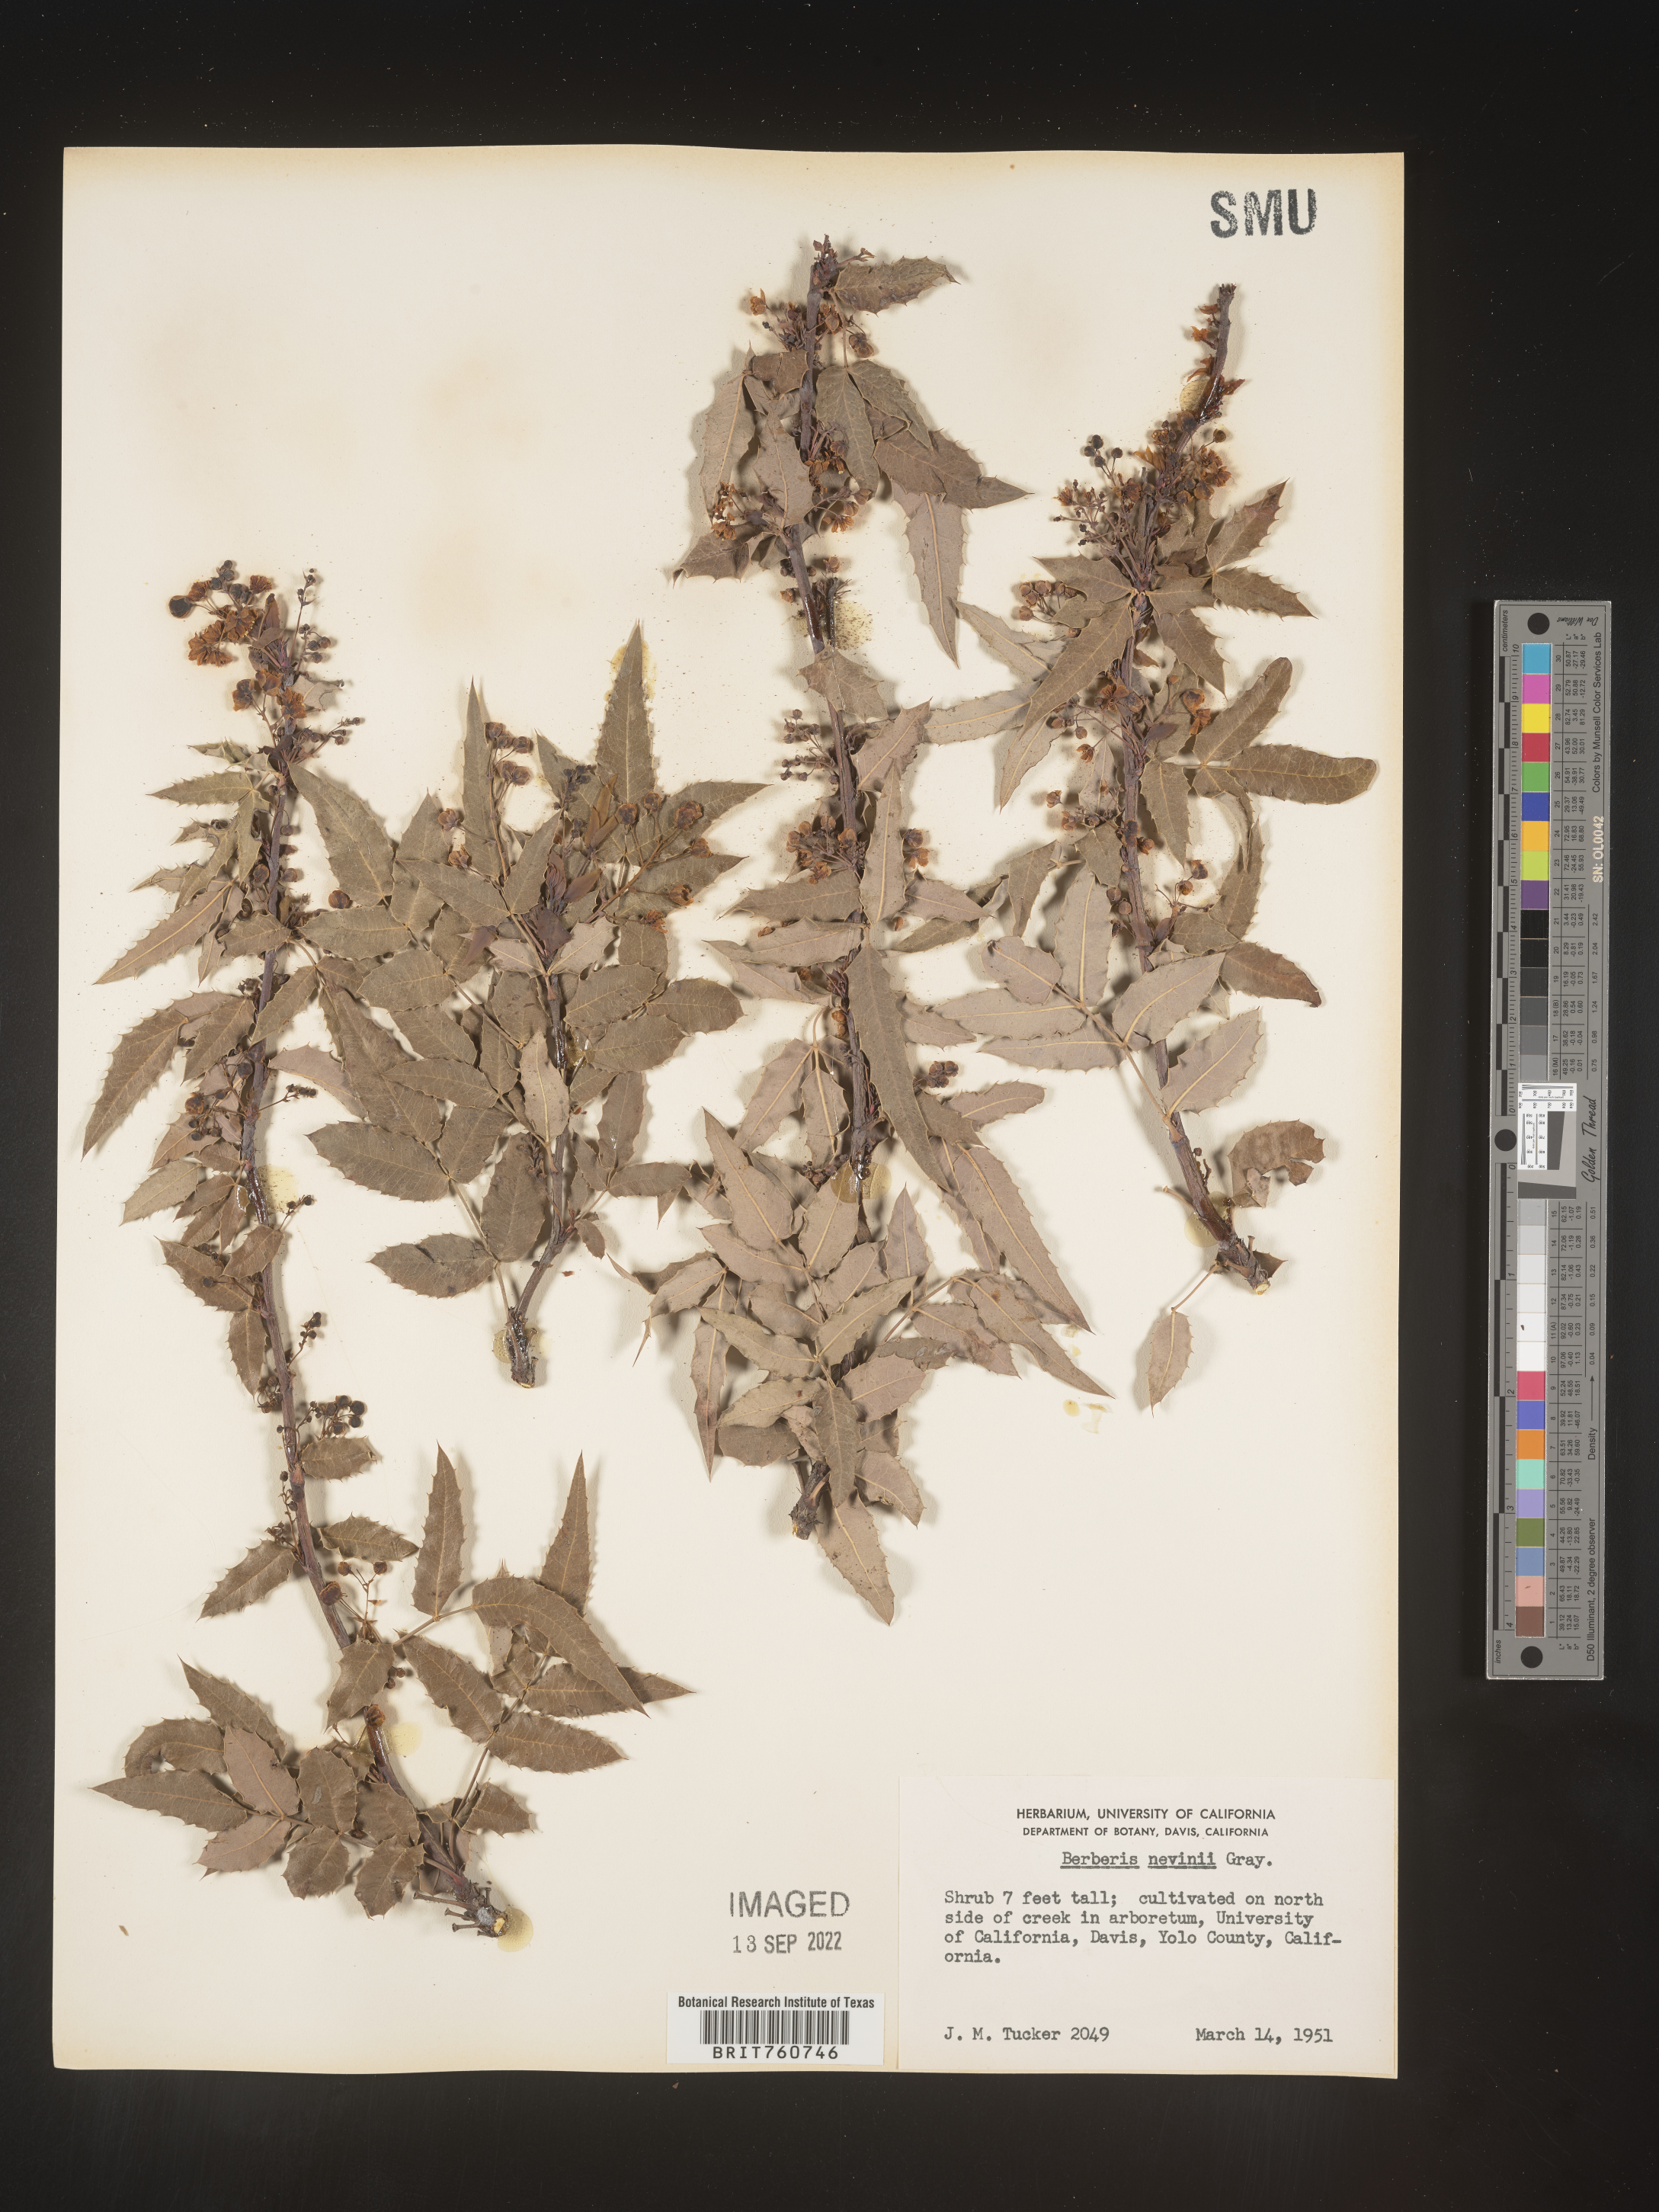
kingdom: Plantae
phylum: Tracheophyta
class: Magnoliopsida
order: Ranunculales
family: Berberidaceae
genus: Berberis
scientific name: Berberis
